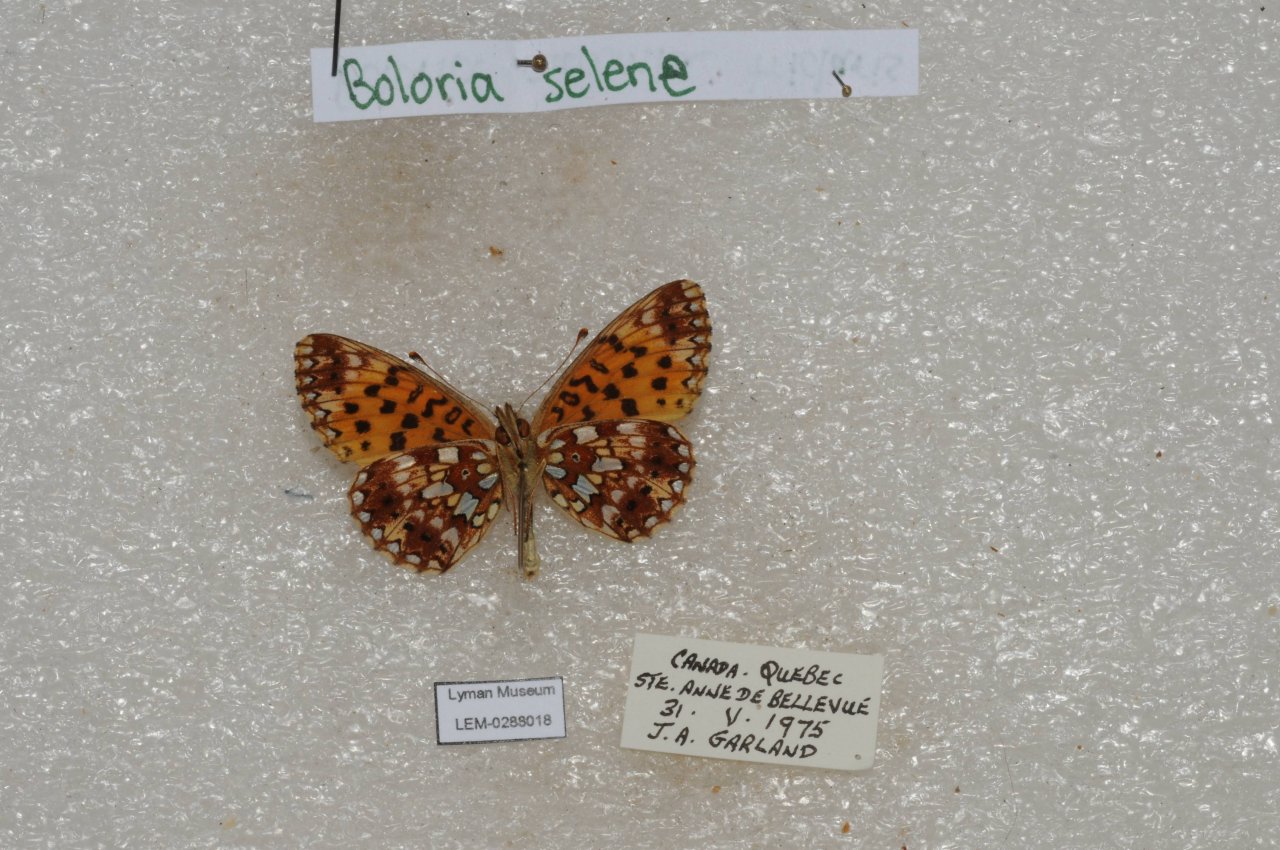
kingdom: Animalia
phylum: Arthropoda
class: Insecta
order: Lepidoptera
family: Nymphalidae
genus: Boloria
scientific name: Boloria selene
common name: Silver-bordered Fritillary
